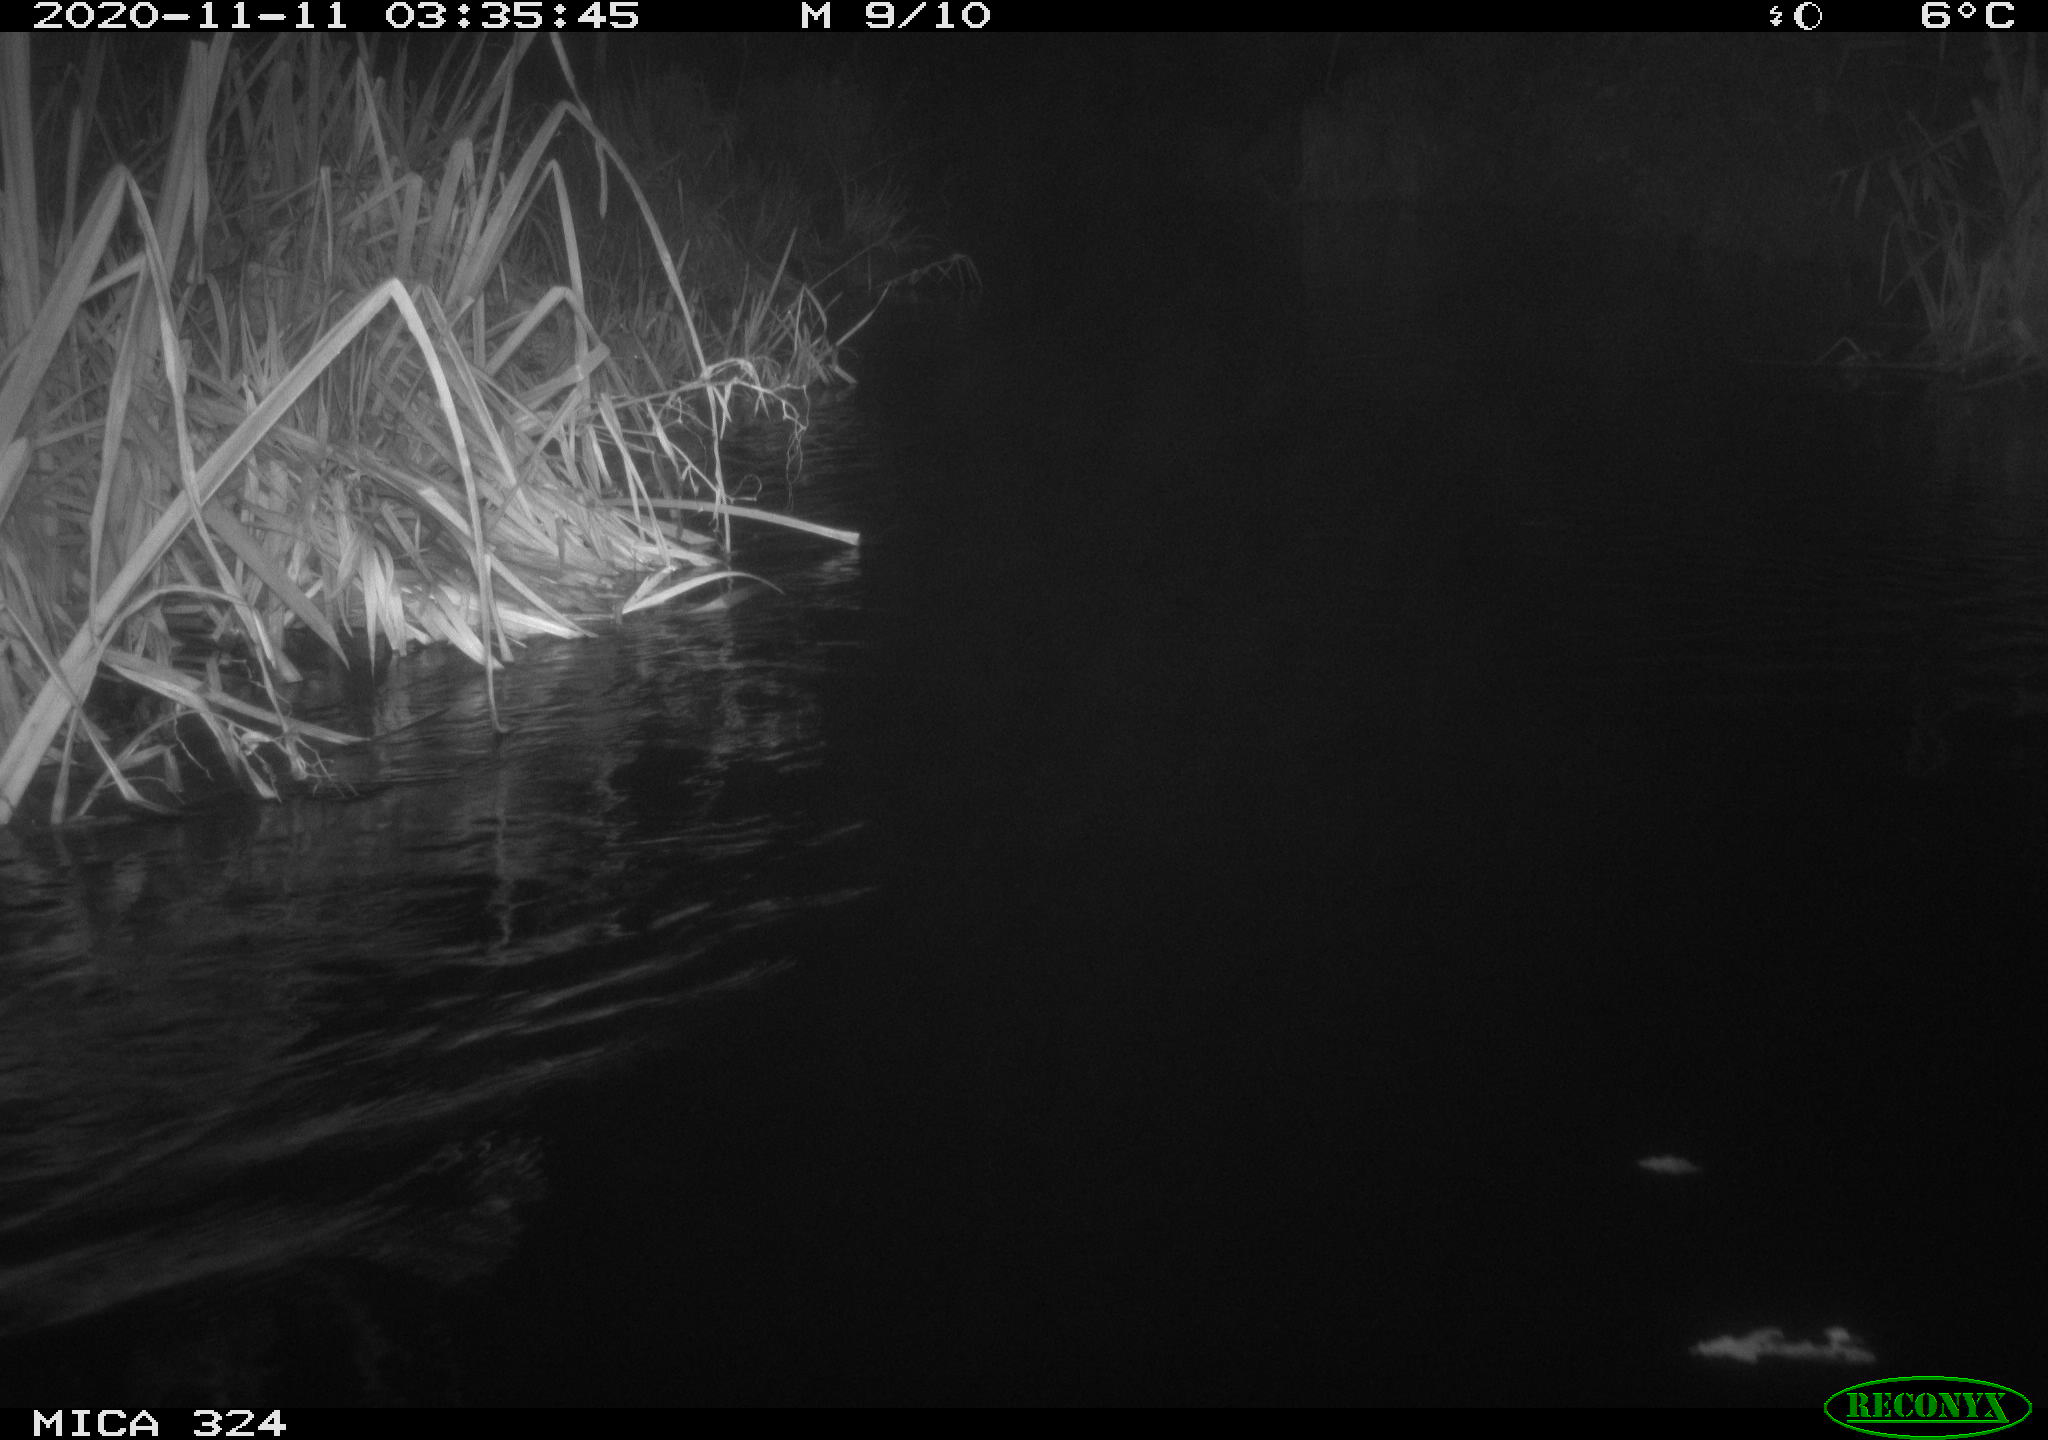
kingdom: Animalia
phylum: Chordata
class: Mammalia
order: Rodentia
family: Cricetidae
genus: Ondatra
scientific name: Ondatra zibethicus
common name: Muskrat
